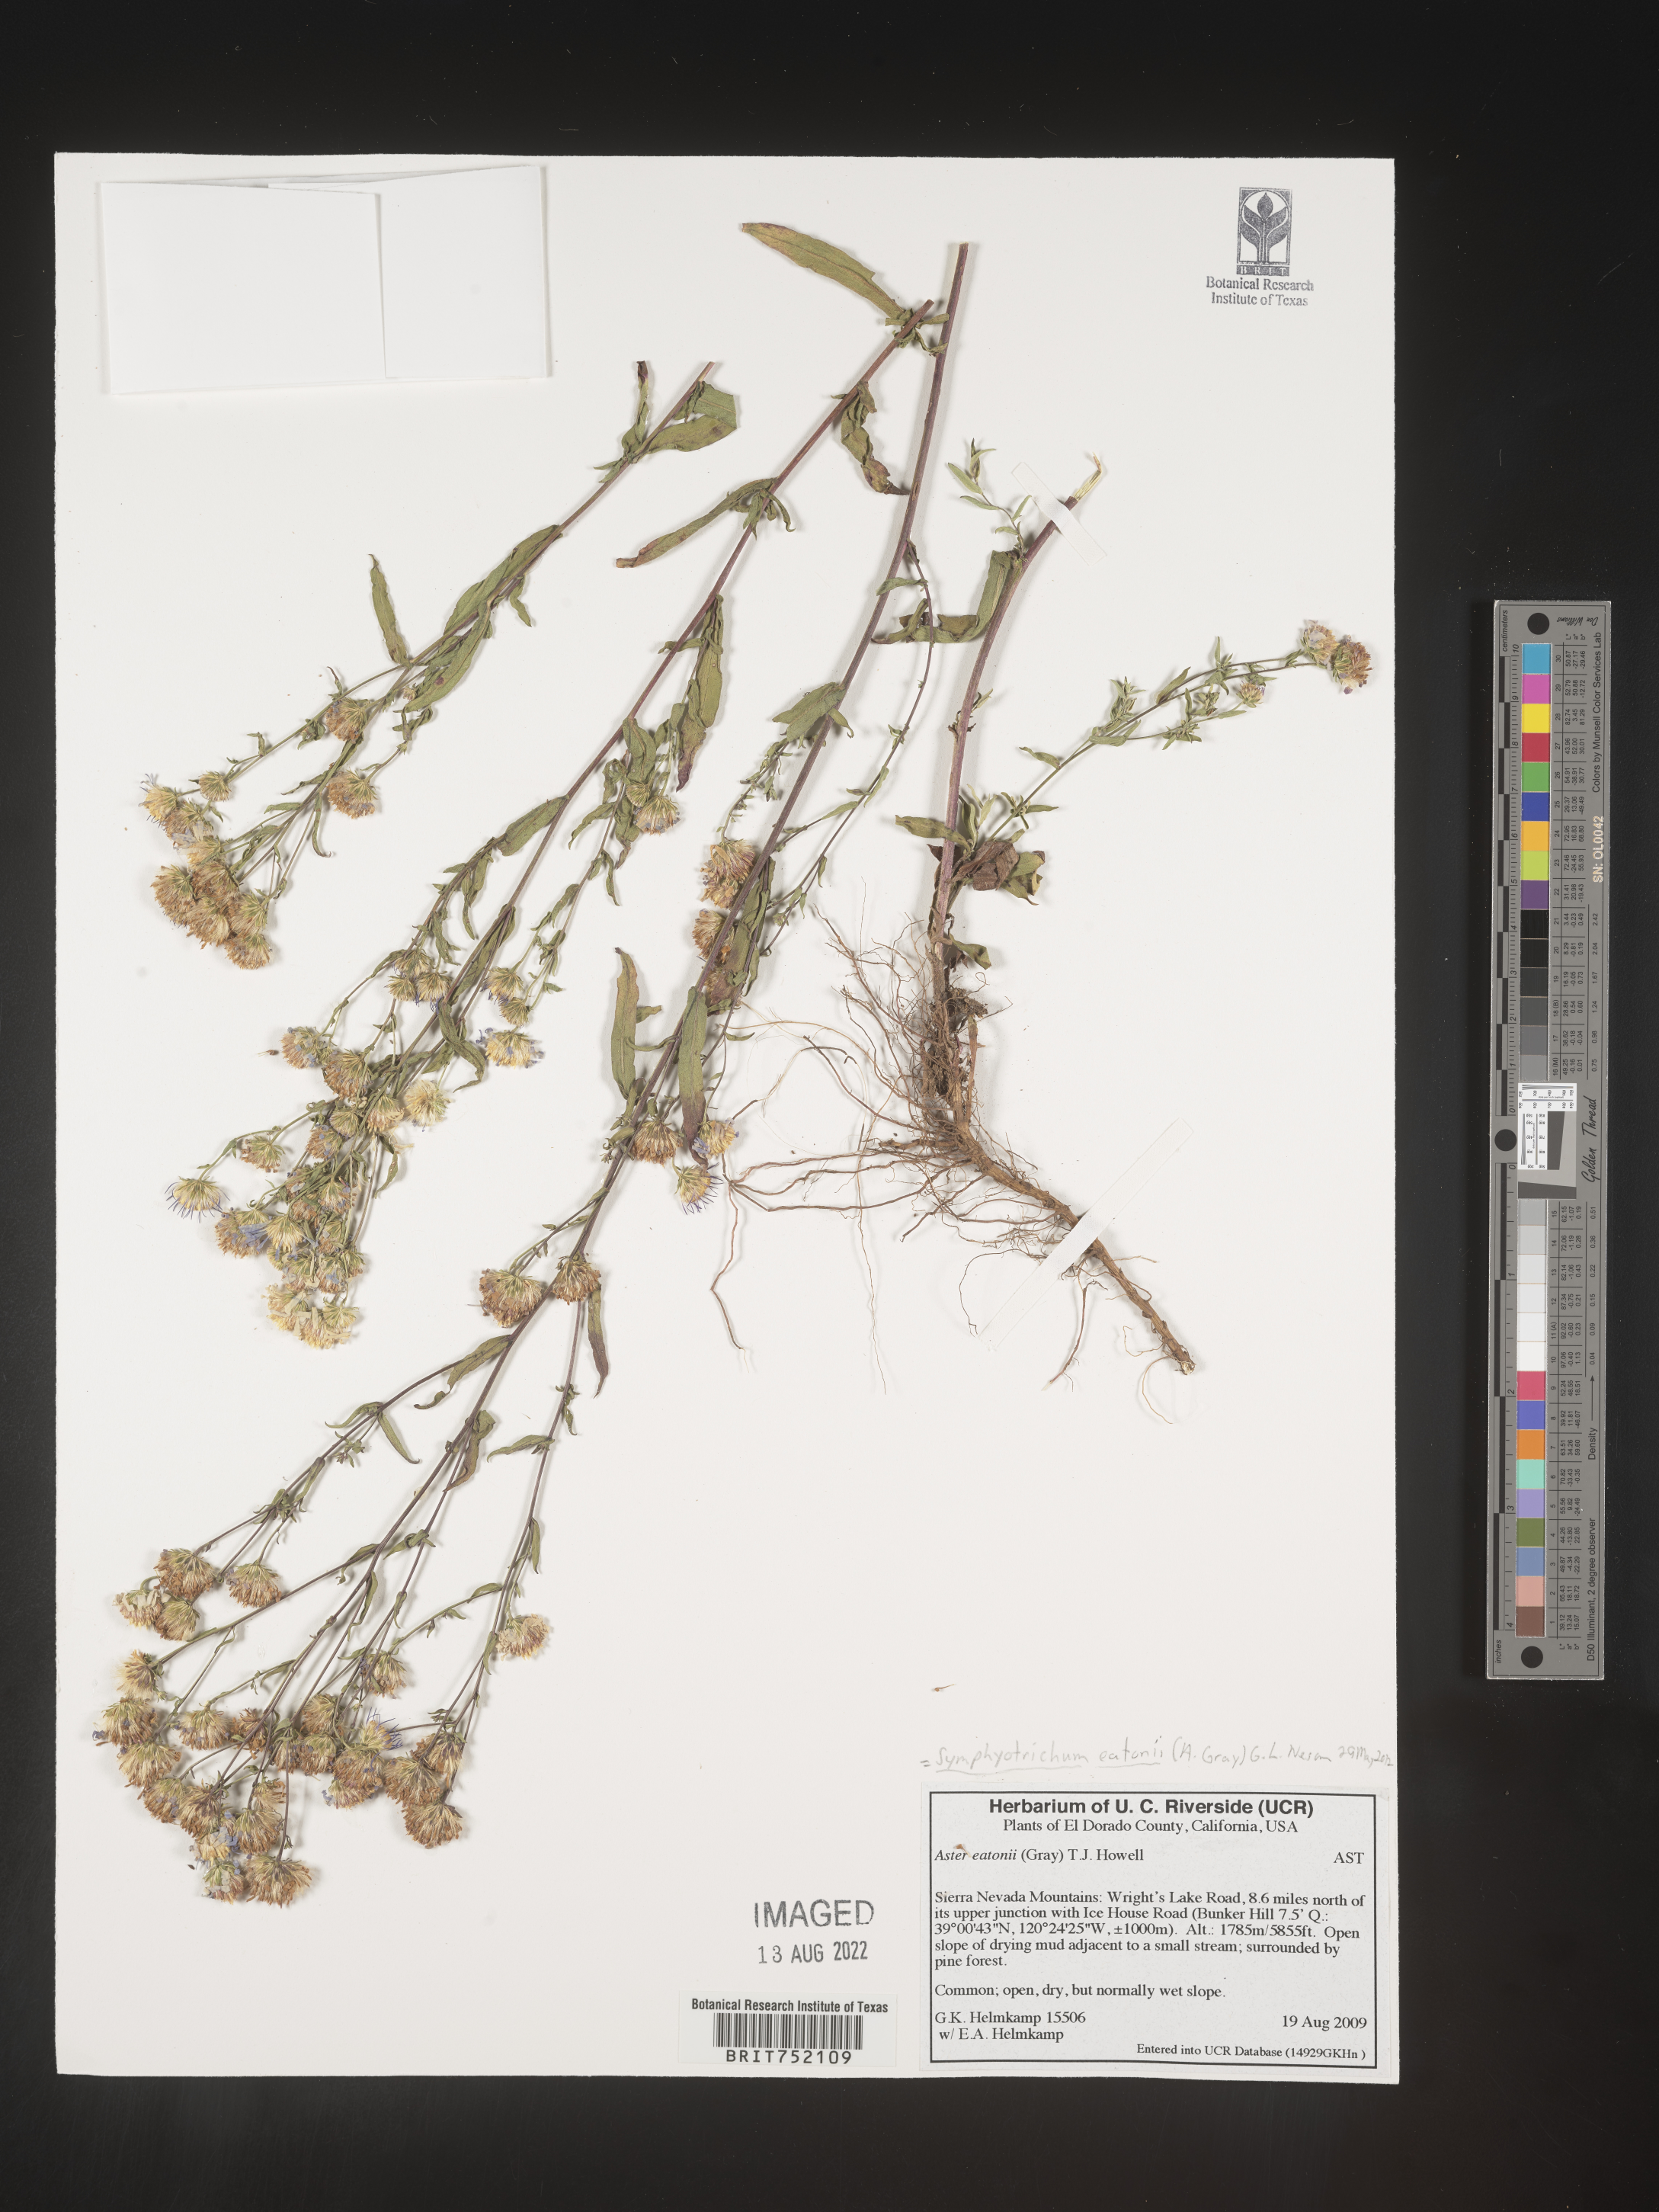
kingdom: Plantae
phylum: Tracheophyta
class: Magnoliopsida
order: Asterales
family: Asteraceae
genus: Symphyotrichum
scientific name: Symphyotrichum bracteolatum
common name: Eaton's aster
